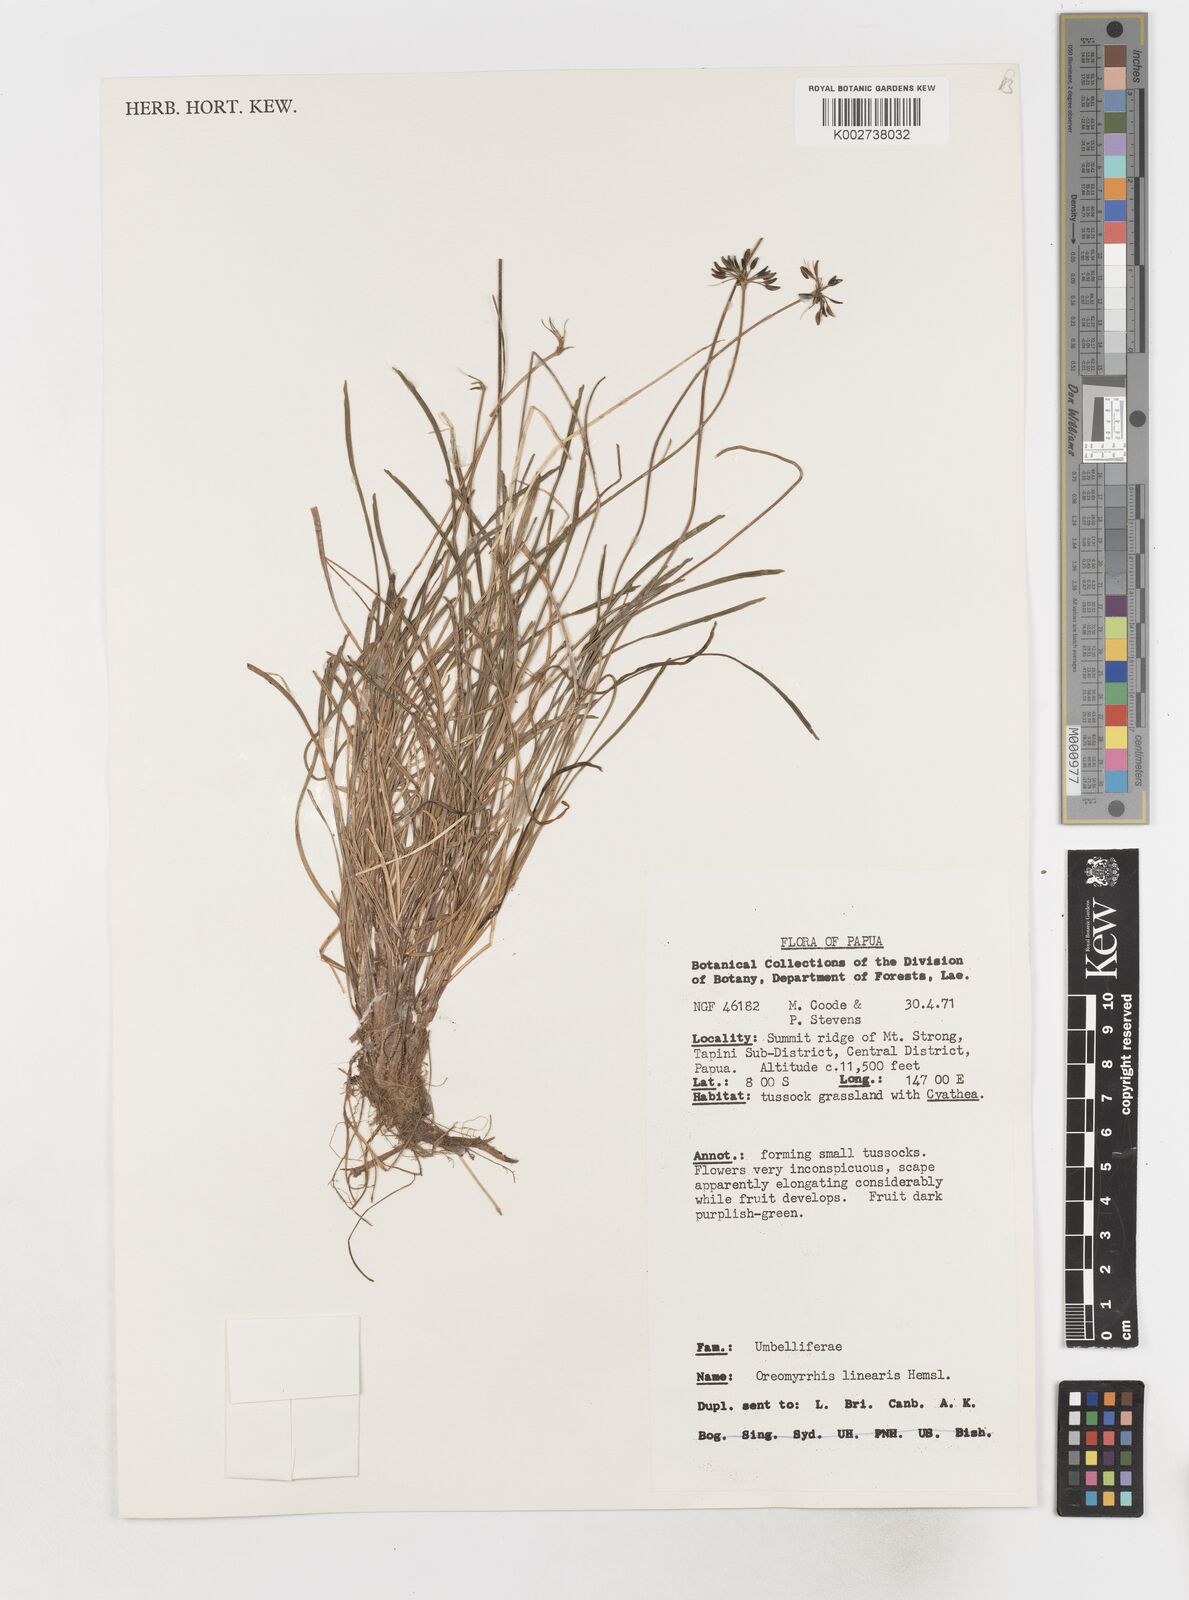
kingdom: Plantae
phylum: Tracheophyta
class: Magnoliopsida
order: Apiales
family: Apiaceae
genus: Chaerophyllum
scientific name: Chaerophyllum lineare
